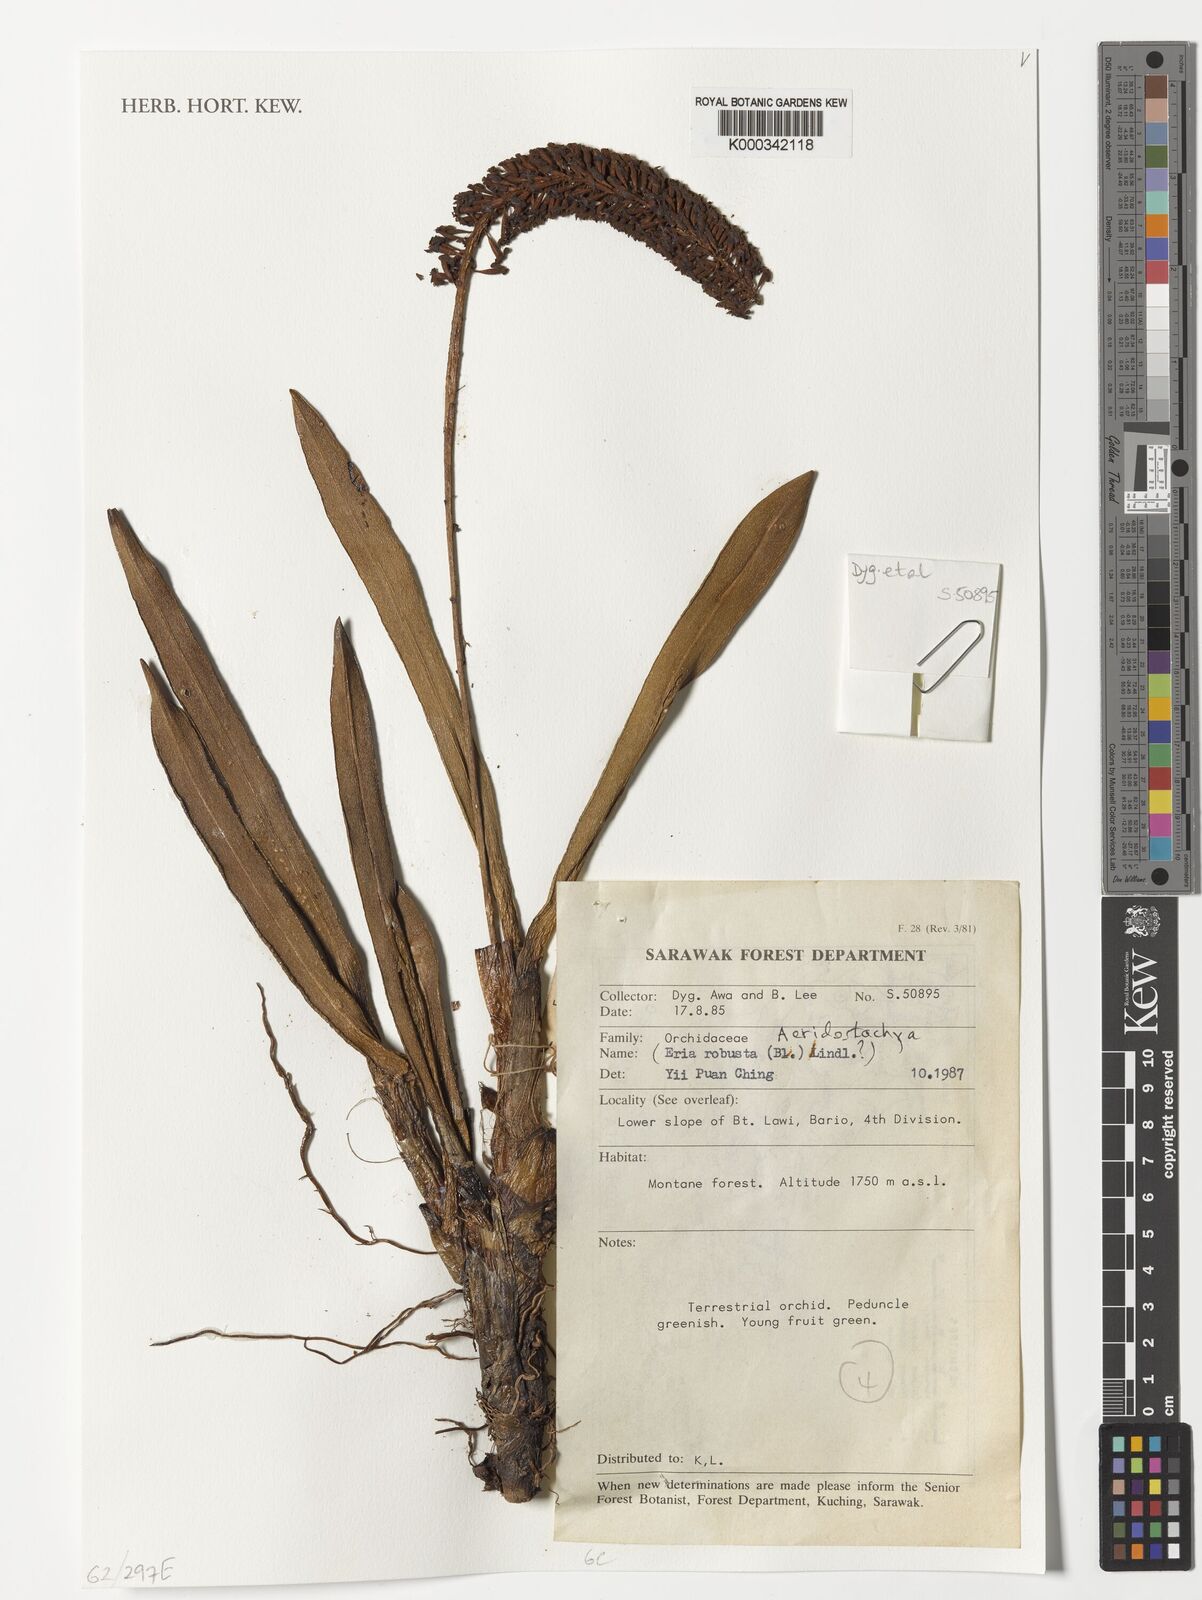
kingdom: Plantae
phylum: Tracheophyta
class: Liliopsida
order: Asparagales
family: Orchidaceae
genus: Aeridostachya
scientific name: Aeridostachya
